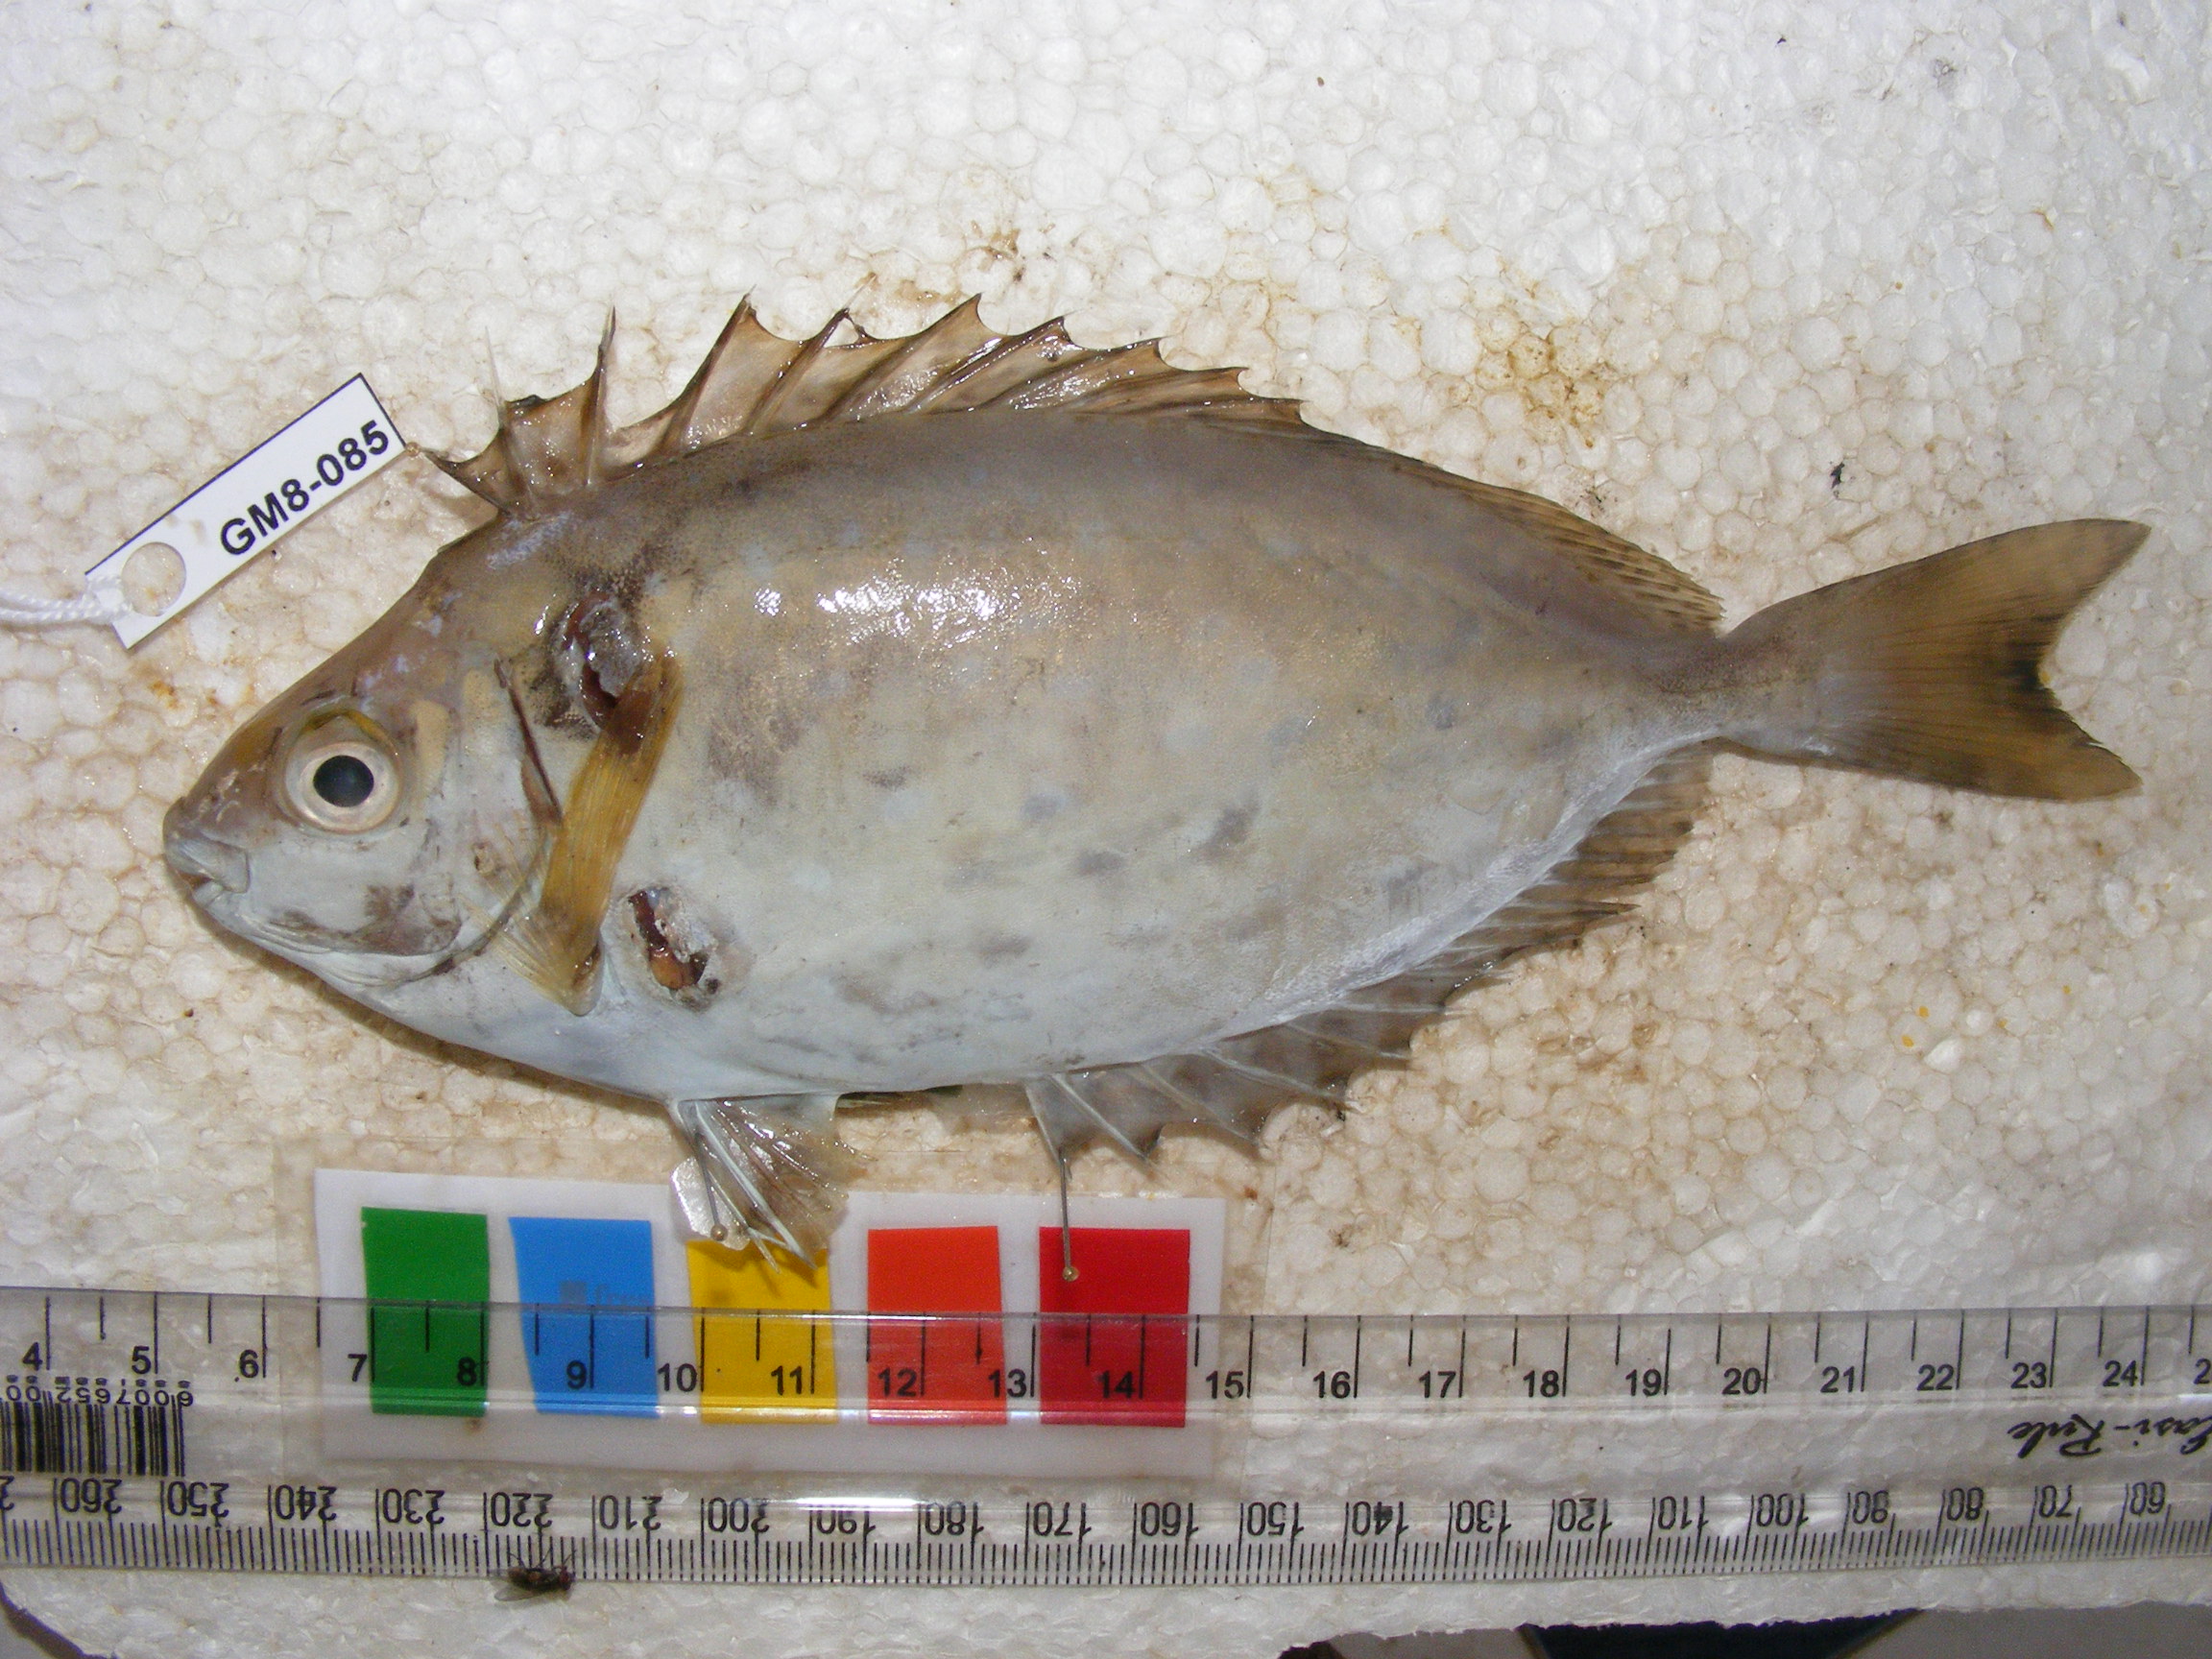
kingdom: Animalia
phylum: Chordata
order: Perciformes
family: Siganidae
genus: Siganus
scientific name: Siganus sutor
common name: Shoemaker spinefoot
